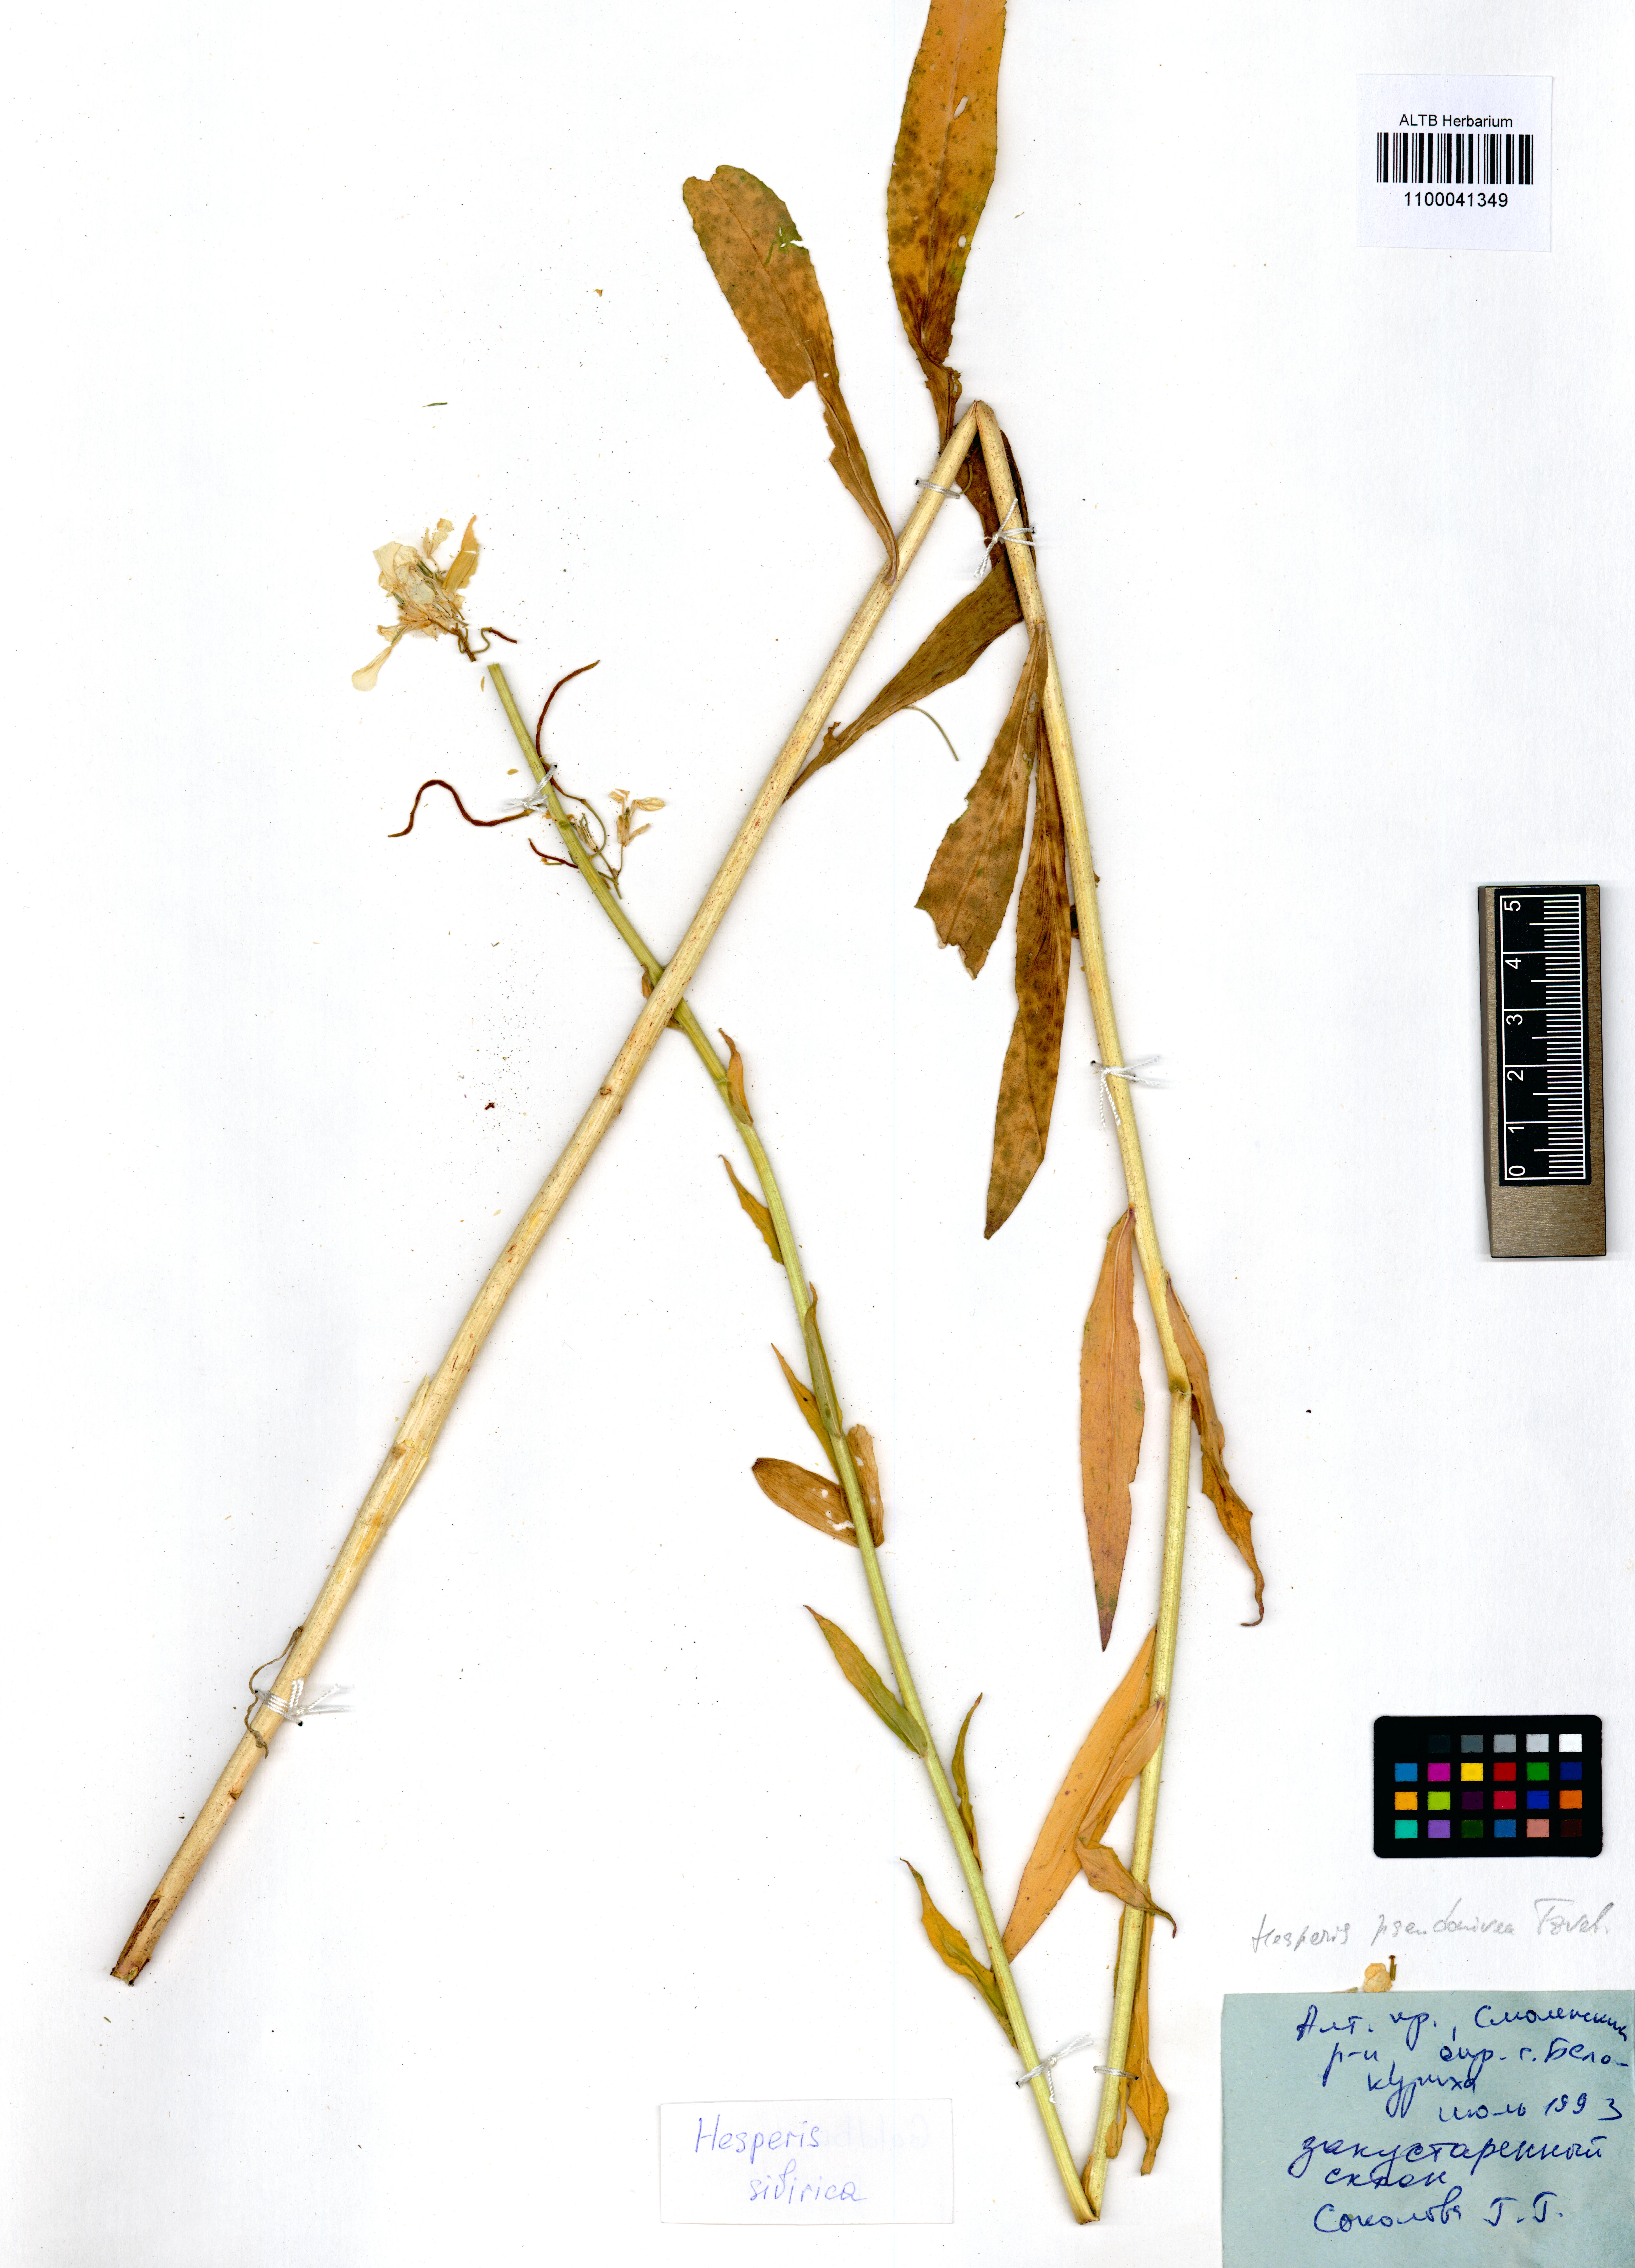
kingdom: Plantae
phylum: Tracheophyta
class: Magnoliopsida
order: Brassicales
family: Brassicaceae
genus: Hesperis
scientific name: Hesperis sibirica
